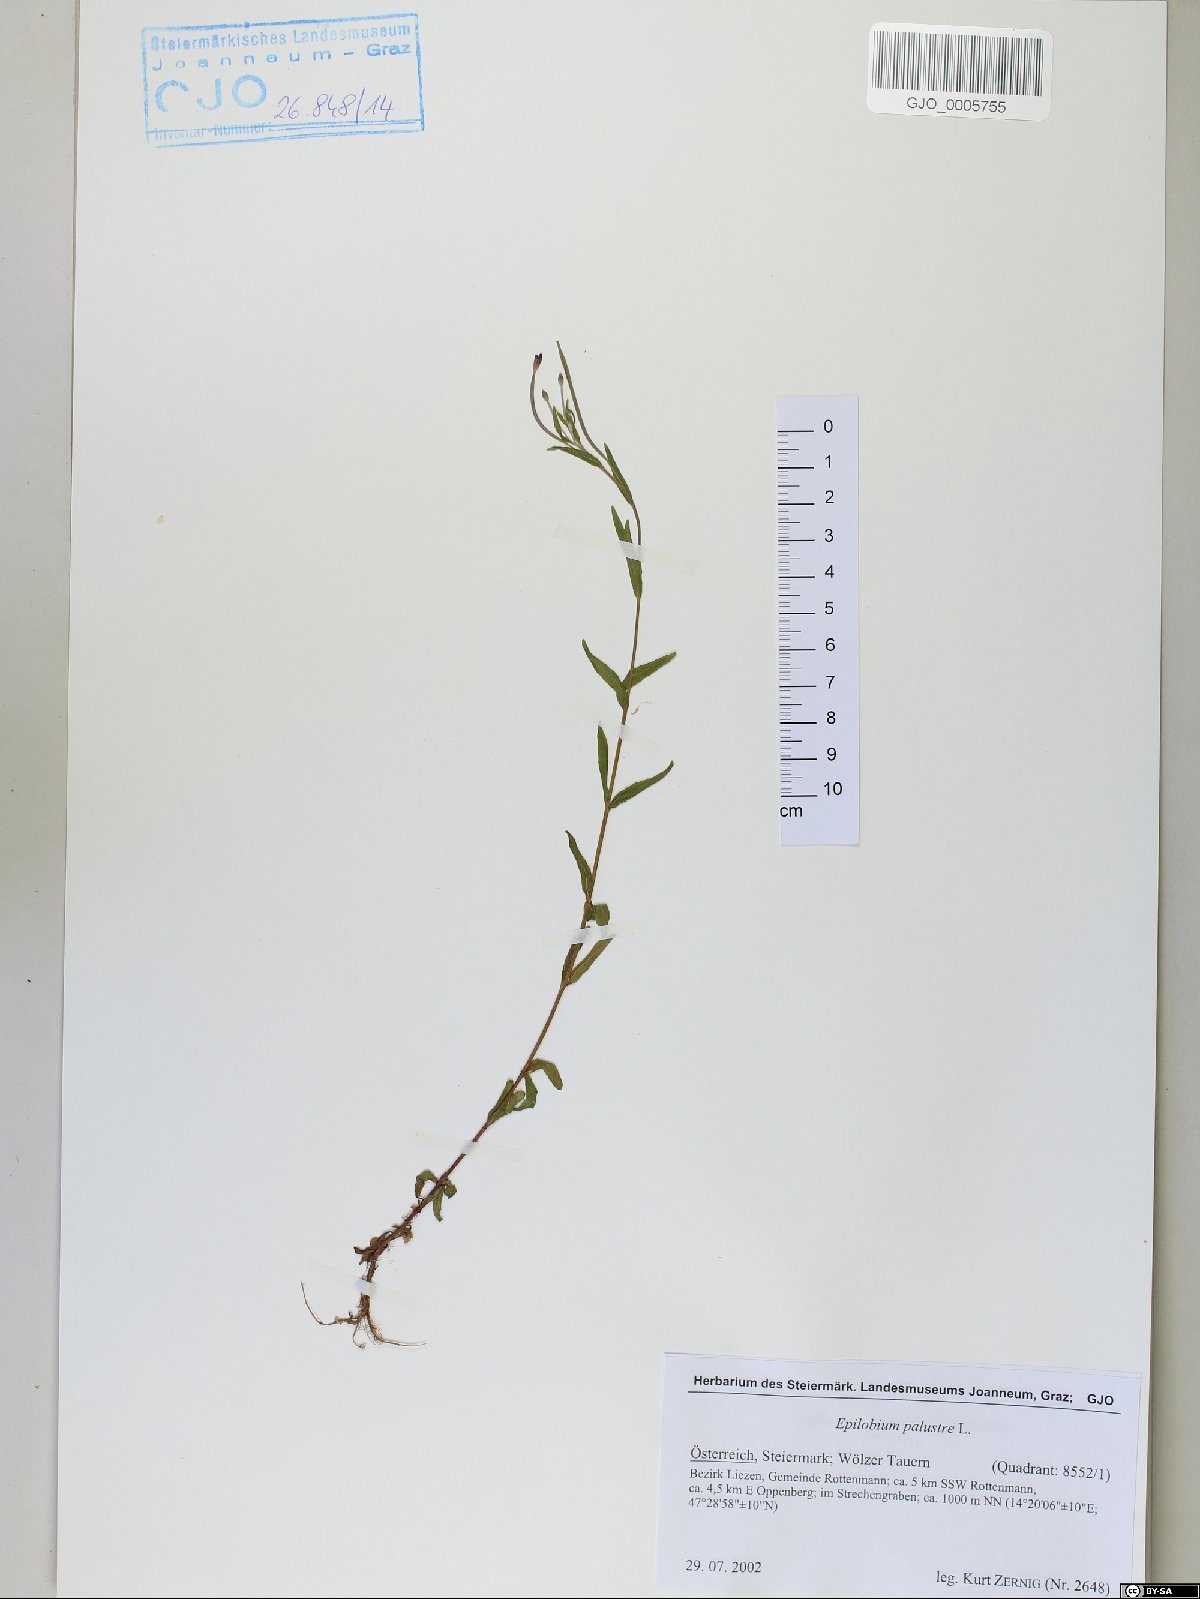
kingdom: Plantae
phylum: Tracheophyta
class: Magnoliopsida
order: Myrtales
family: Onagraceae
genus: Epilobium
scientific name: Epilobium palustre
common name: Marsh willowherb
